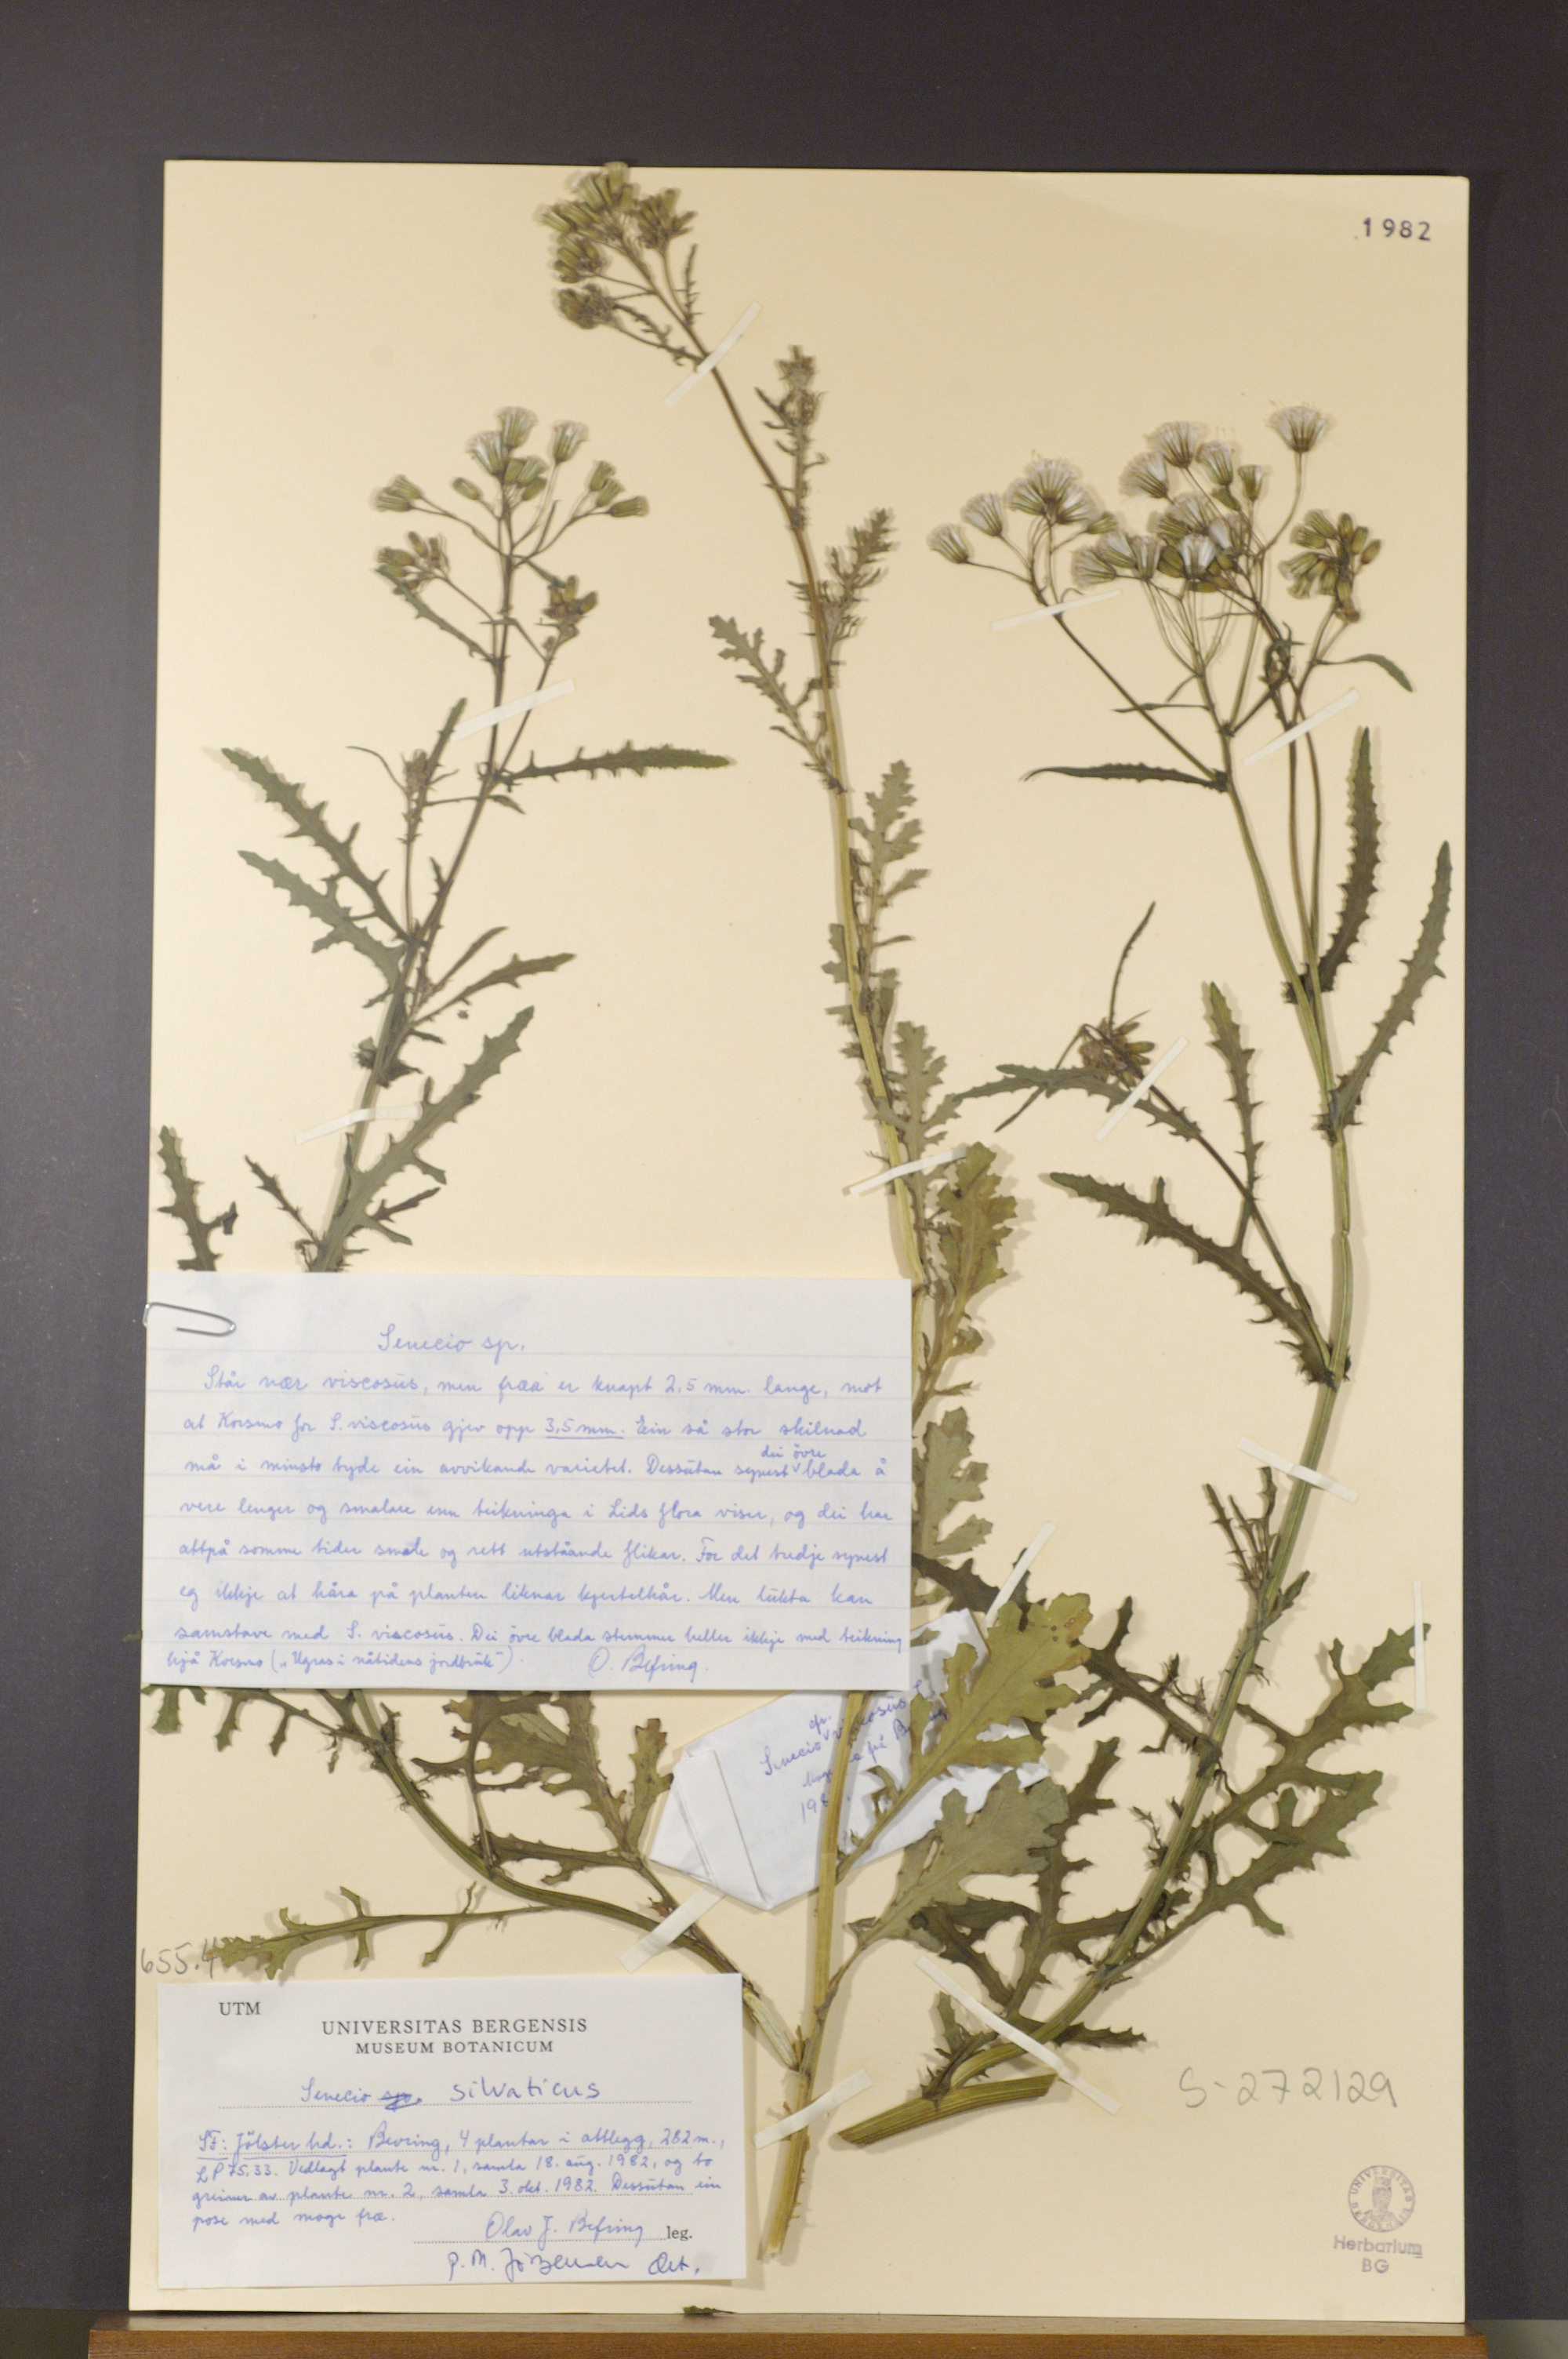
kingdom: Plantae
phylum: Tracheophyta
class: Magnoliopsida
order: Asterales
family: Asteraceae
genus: Senecio
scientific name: Senecio sylvaticus
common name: Woodland ragwort
